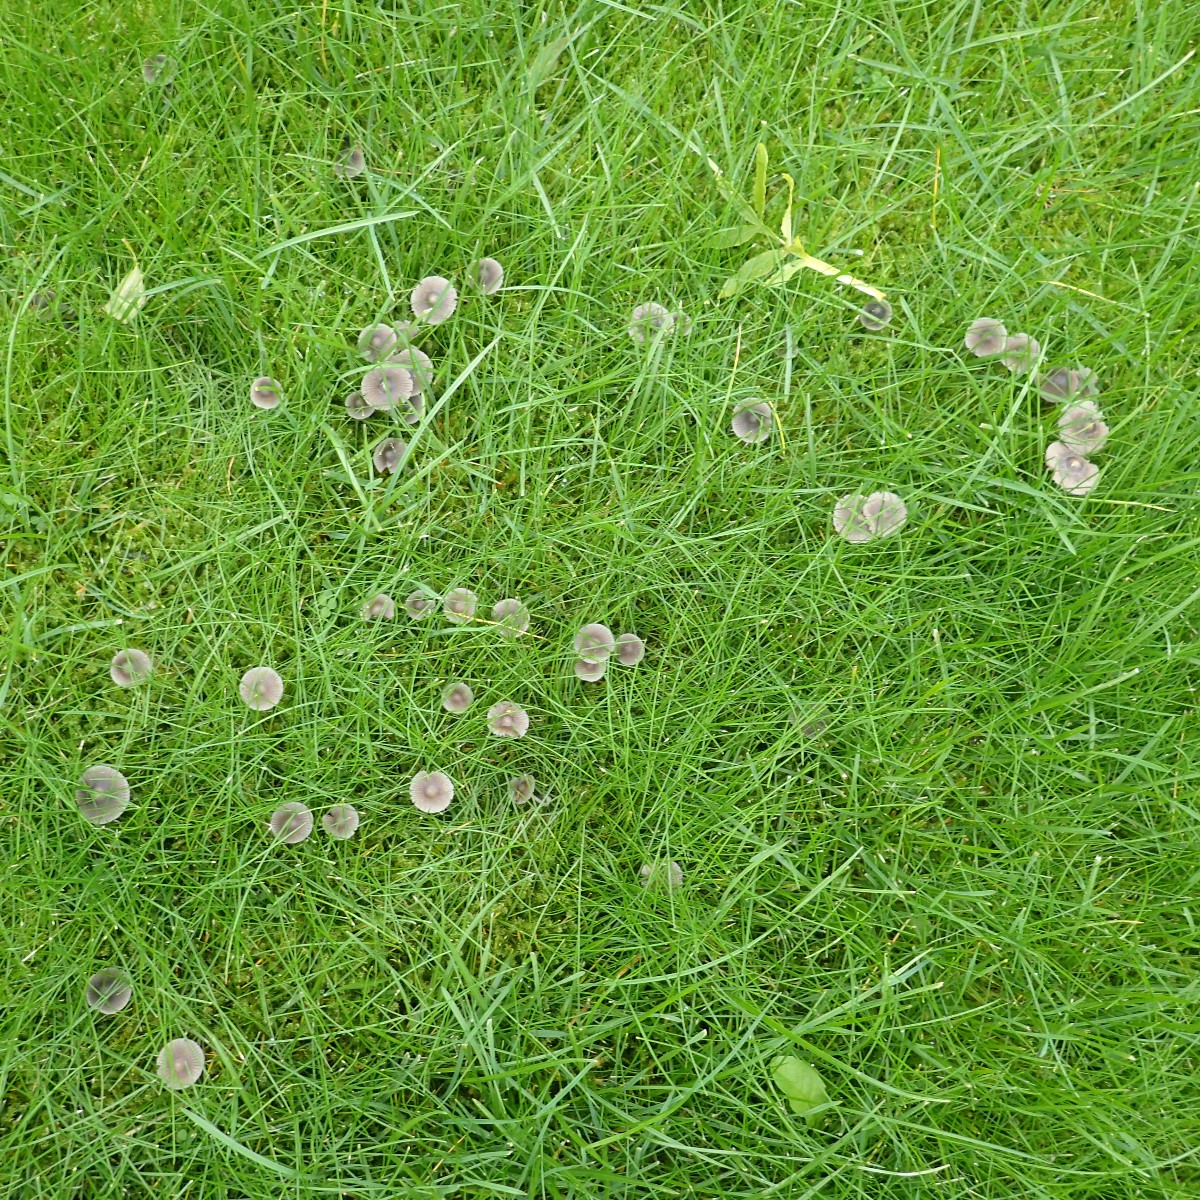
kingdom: Fungi
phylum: Basidiomycota
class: Agaricomycetes
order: Agaricales
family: Mycenaceae
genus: Mycena
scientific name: Mycena aetites
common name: plæne-huesvamp
